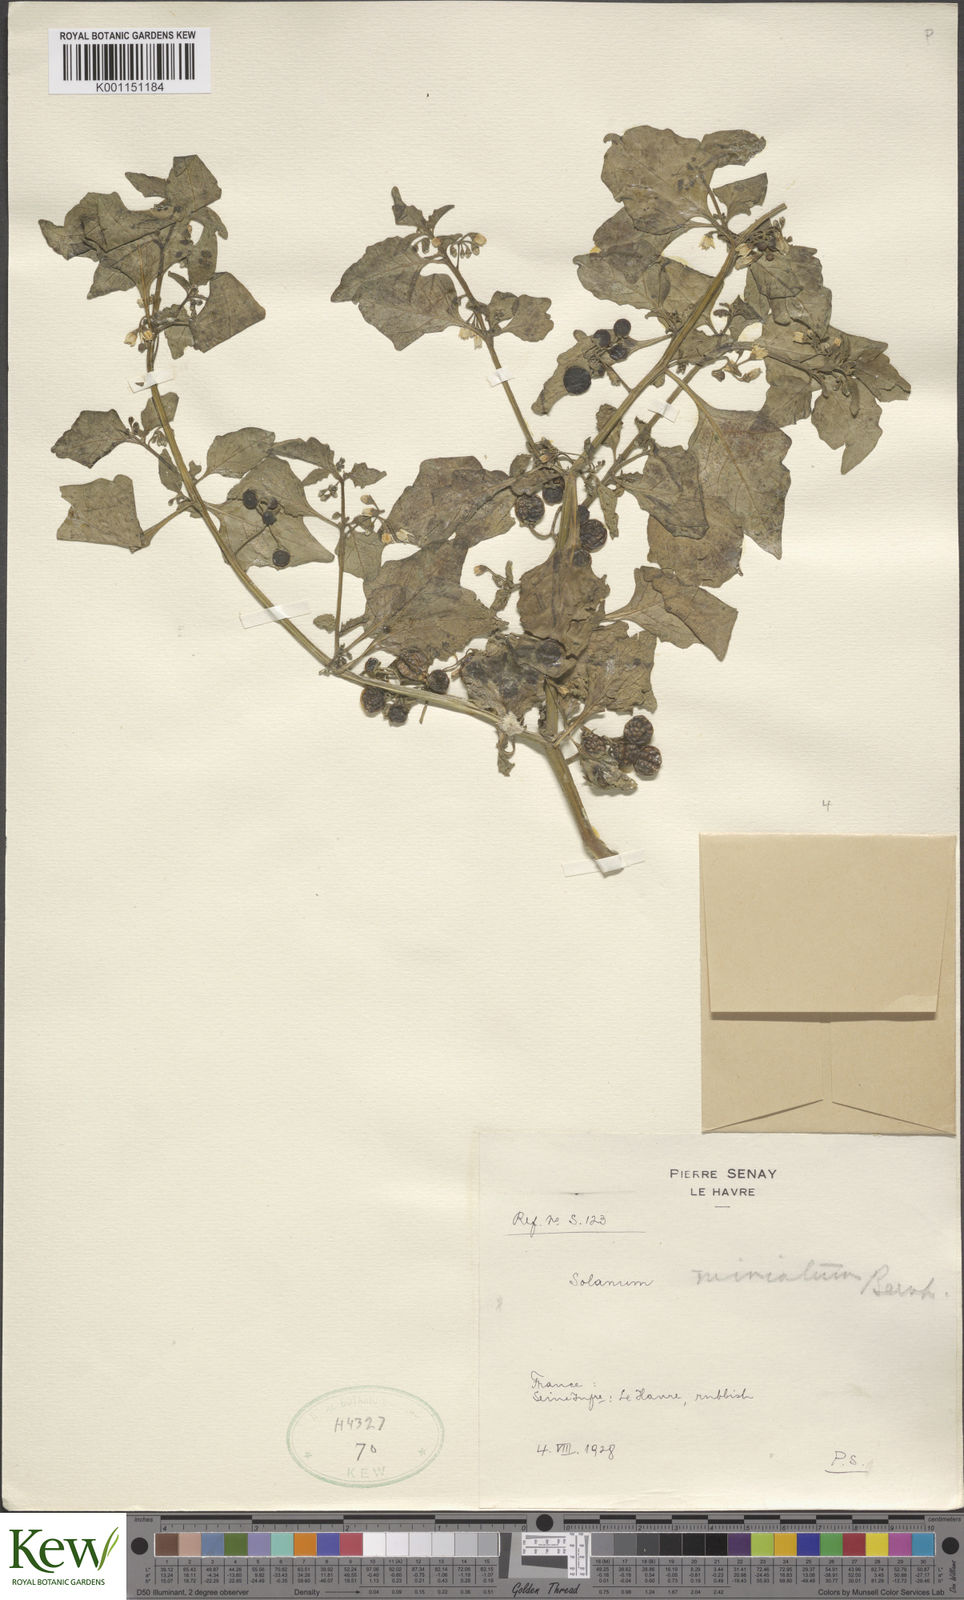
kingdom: Plantae
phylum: Tracheophyta
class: Magnoliopsida
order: Solanales
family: Solanaceae
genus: Solanum
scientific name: Solanum alatum
